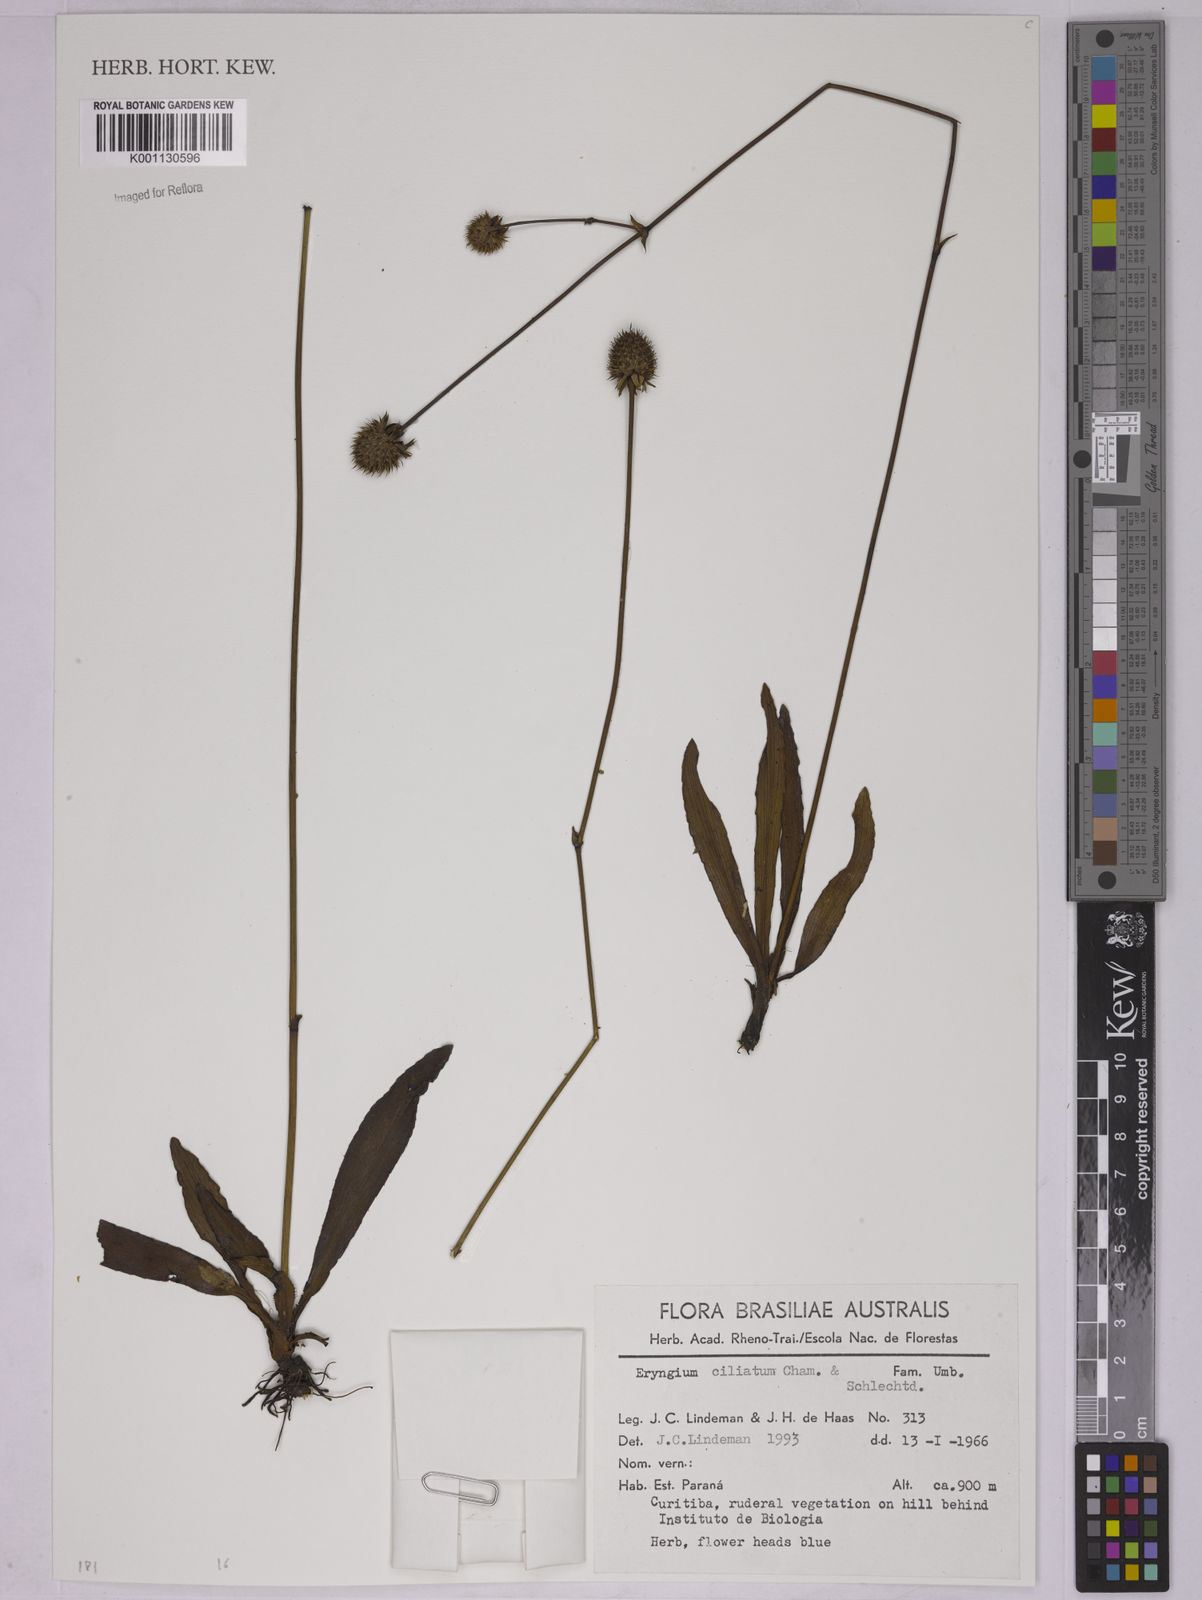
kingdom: Plantae
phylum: Tracheophyta
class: Magnoliopsida
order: Apiales
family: Apiaceae
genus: Eryngium
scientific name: Eryngium canaliculatum
